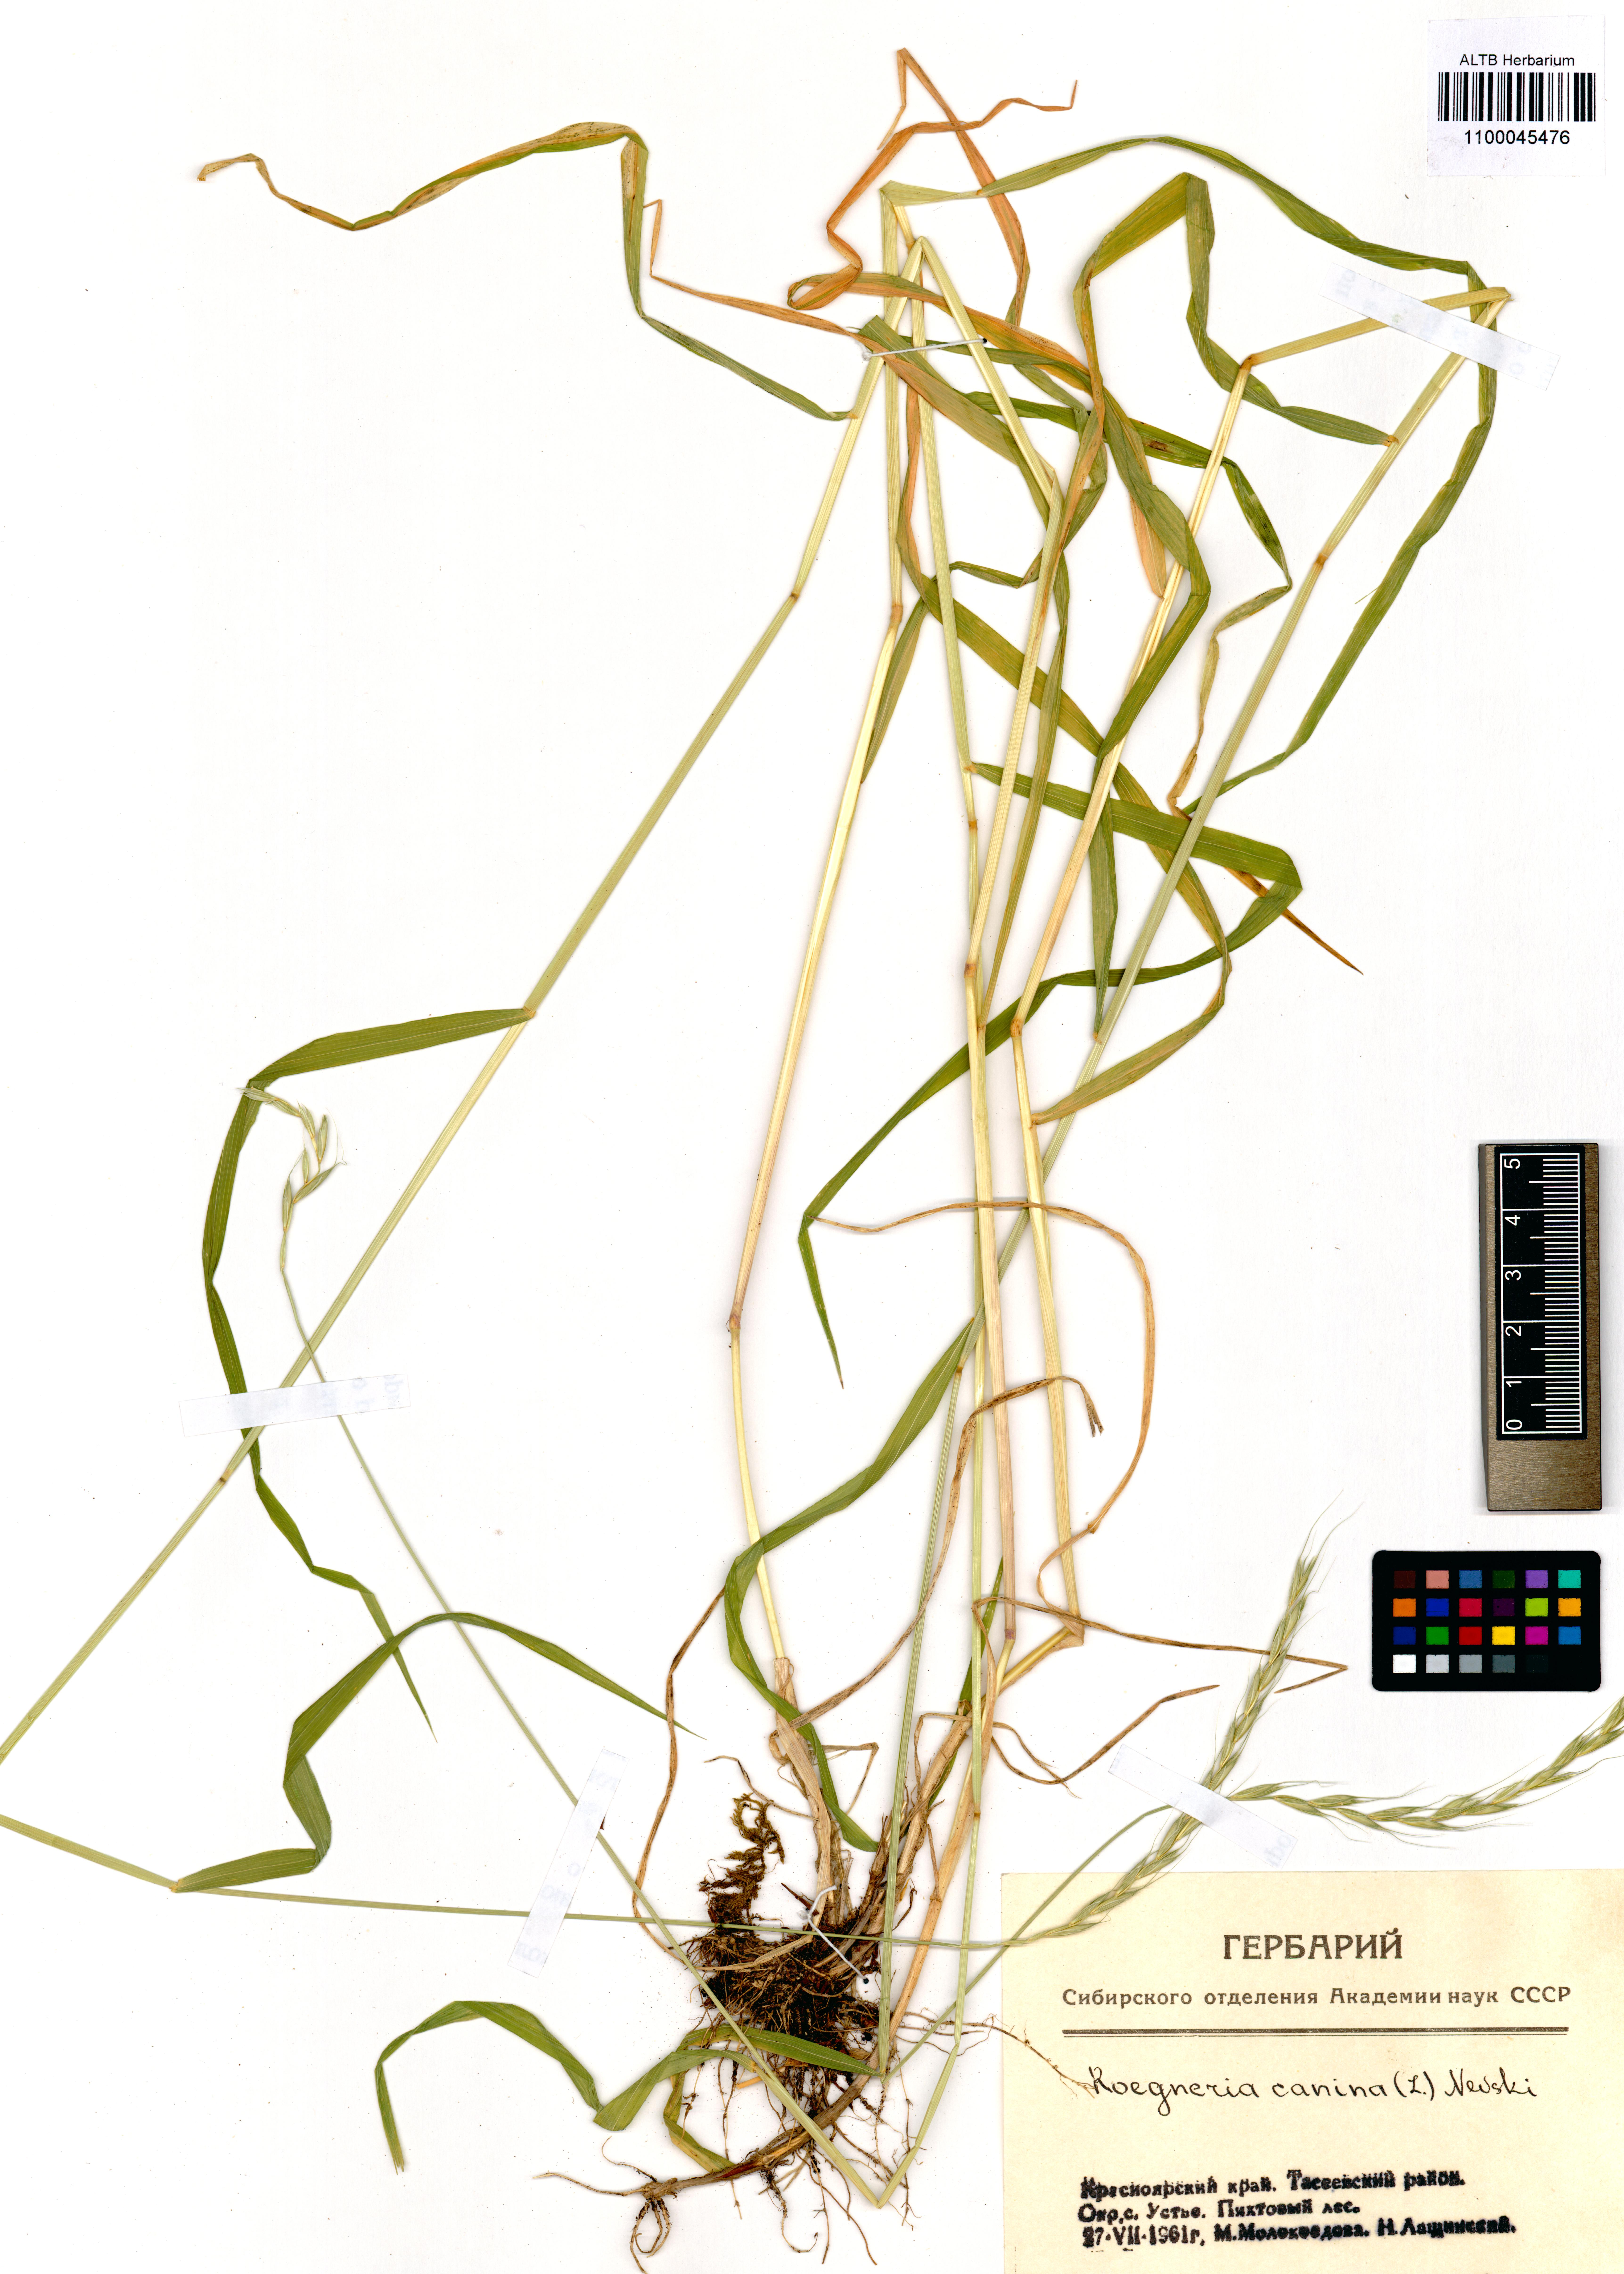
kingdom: Plantae
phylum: Tracheophyta
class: Liliopsida
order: Poales
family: Poaceae
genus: Elymus
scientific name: Elymus caninus
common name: Bearded couch
